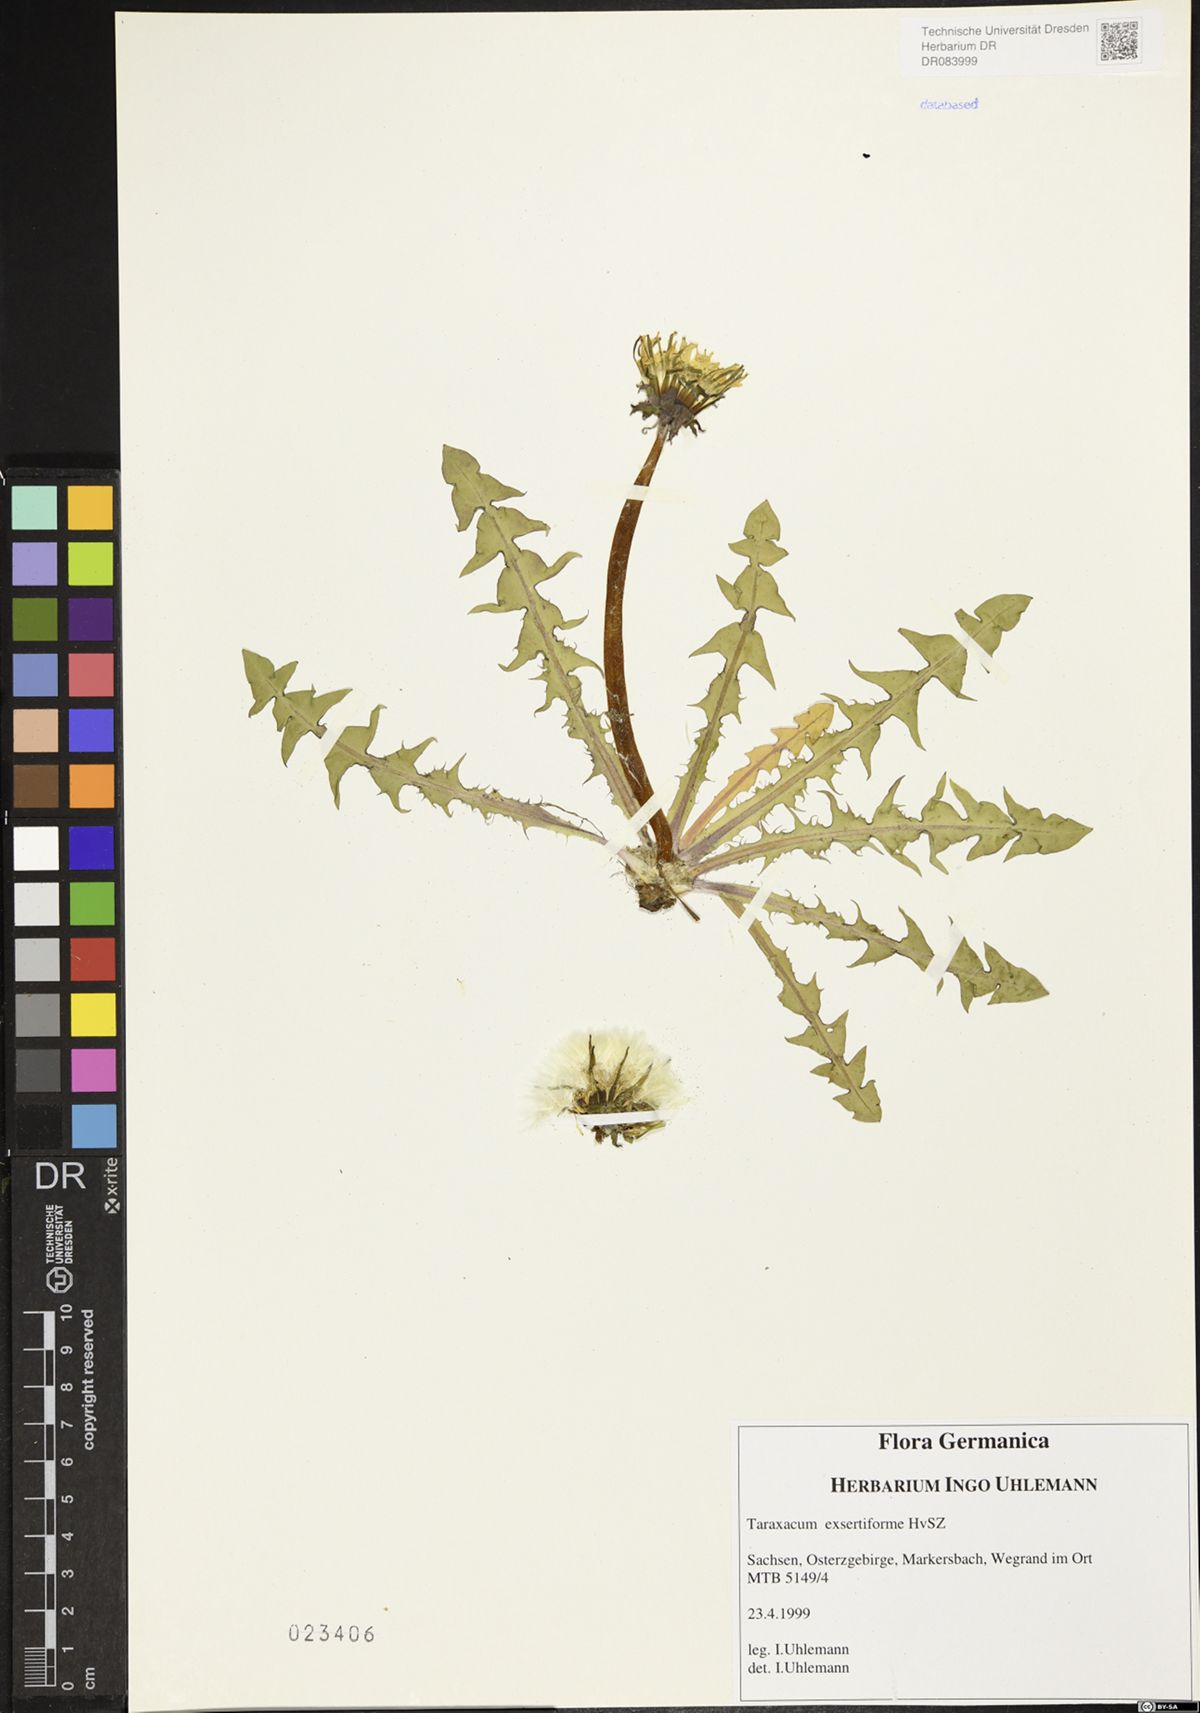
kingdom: Plantae
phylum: Tracheophyta
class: Magnoliopsida
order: Asterales
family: Asteraceae
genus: Taraxacum
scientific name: Taraxacum exsertiforme
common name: Erect-bracted dandelion
